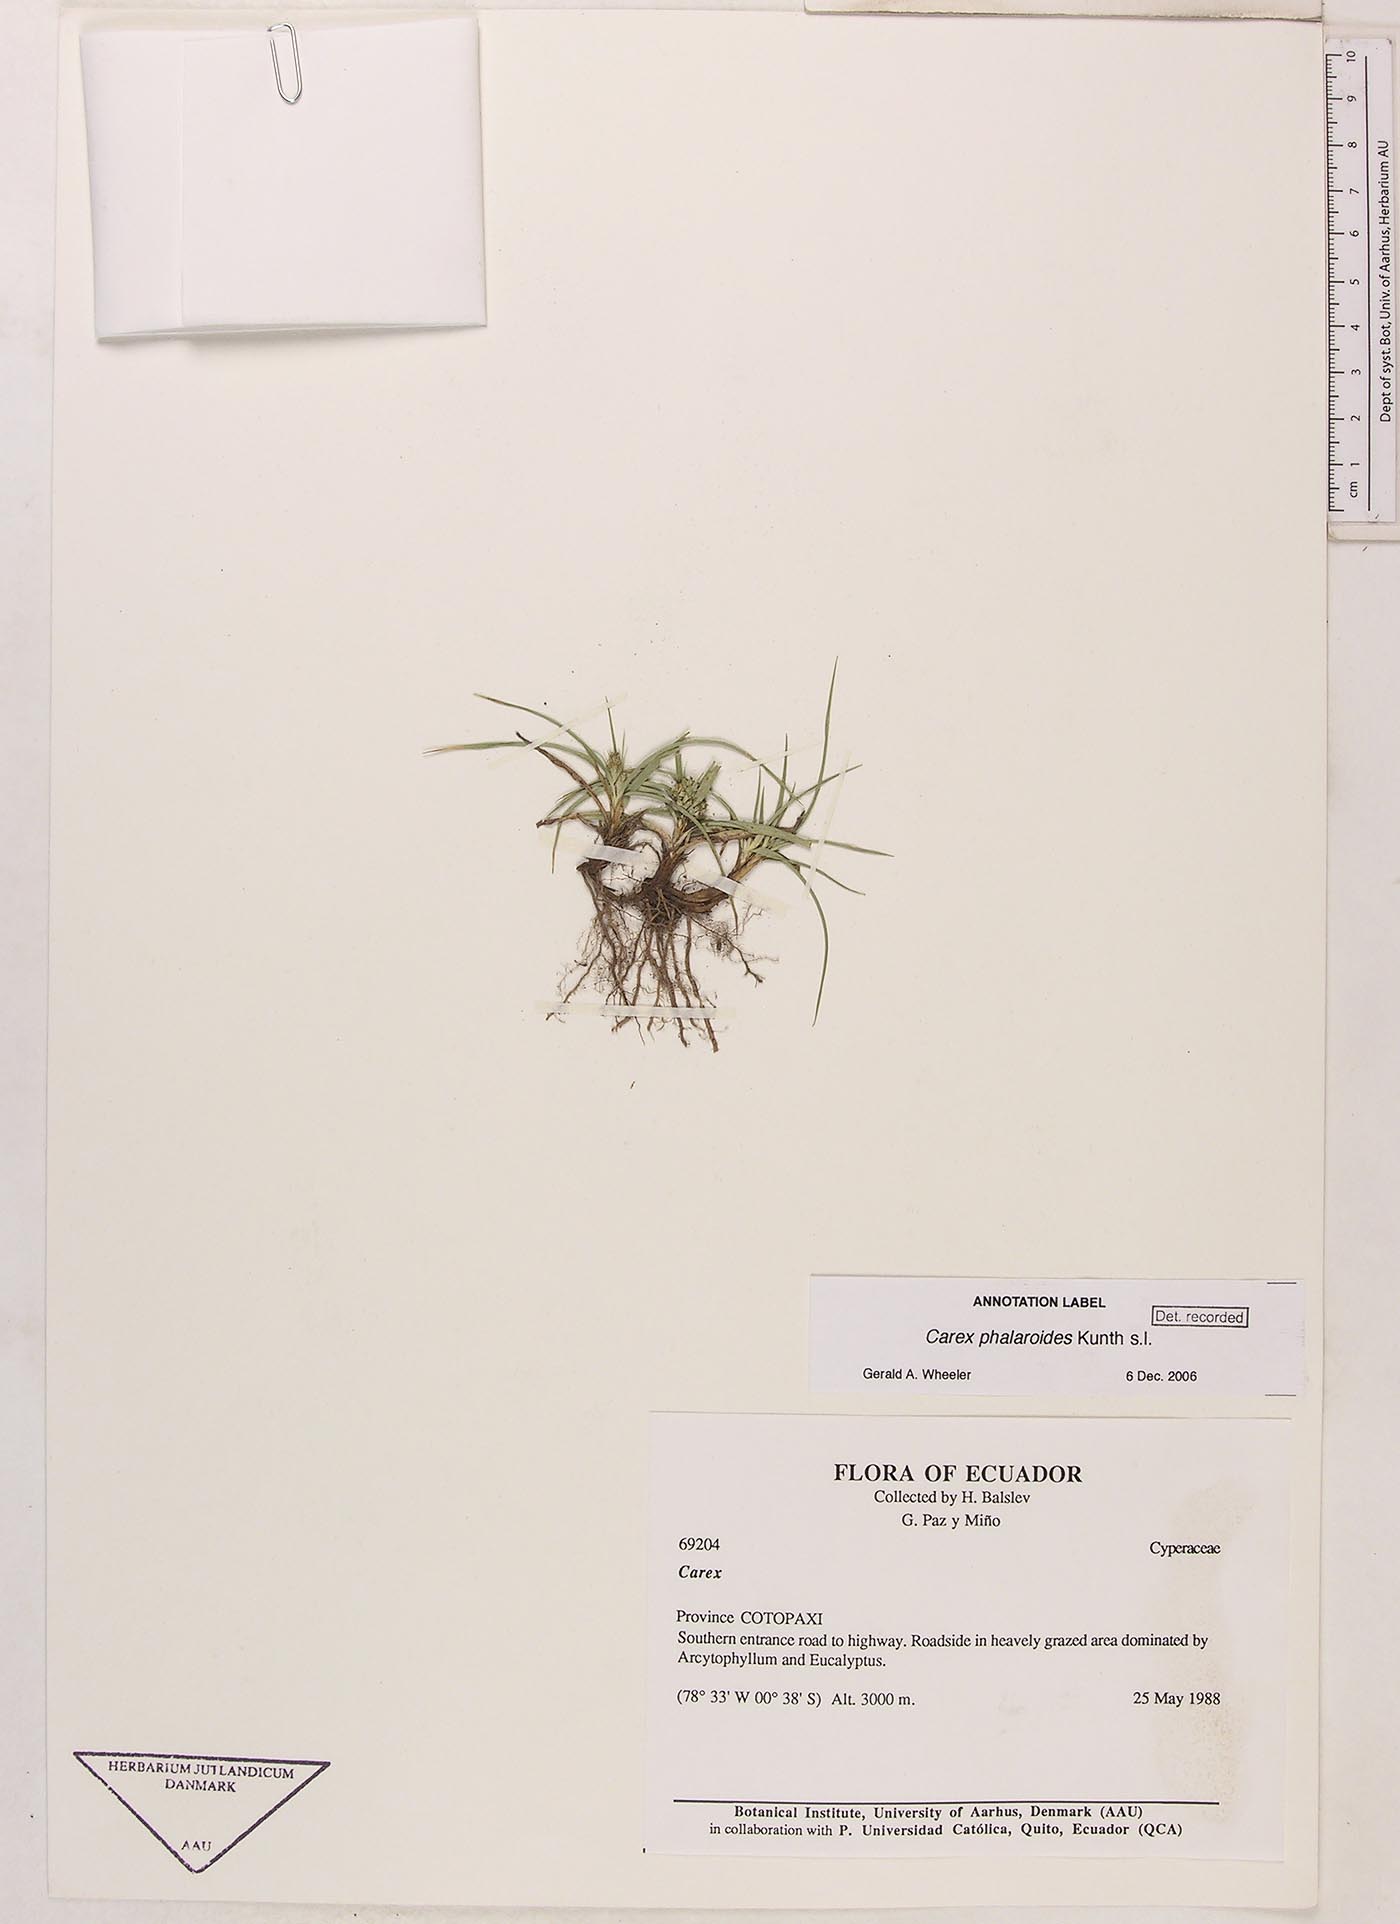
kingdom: Plantae
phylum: Tracheophyta
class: Liliopsida
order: Poales
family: Cyperaceae
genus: Carex
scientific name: Carex phalaroides
